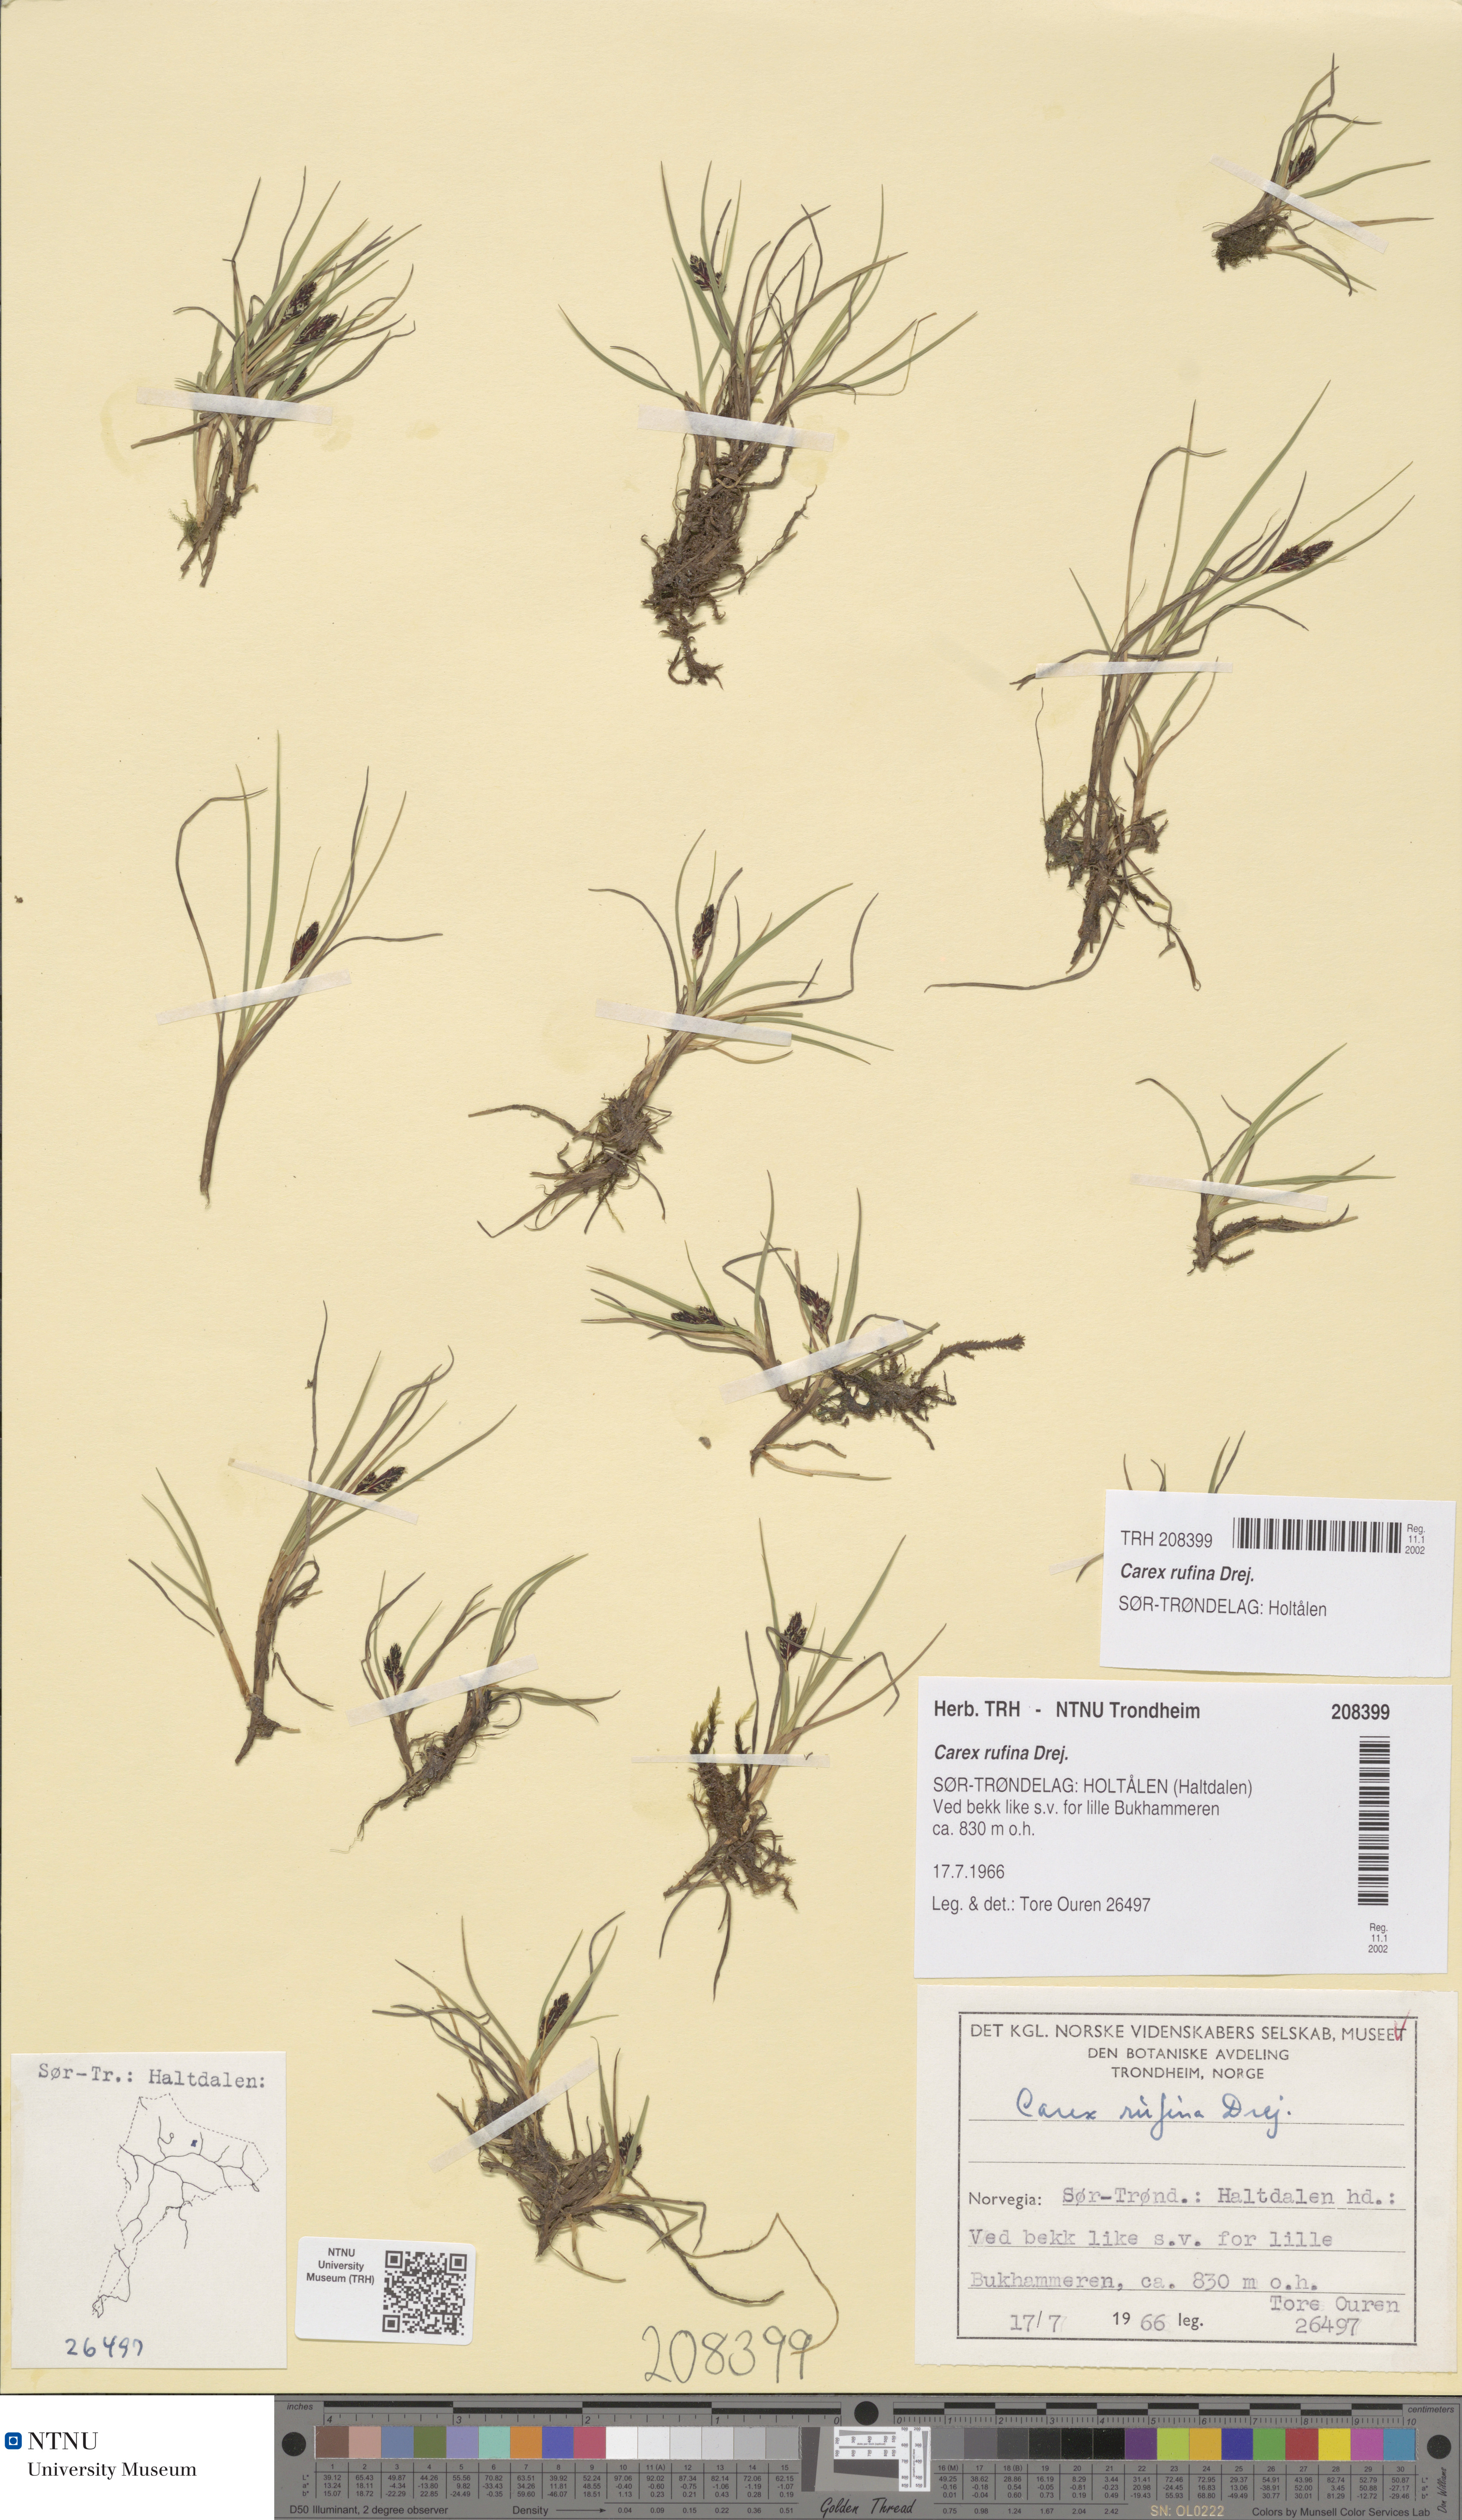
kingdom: Plantae
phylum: Tracheophyta
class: Liliopsida
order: Poales
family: Cyperaceae
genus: Carex
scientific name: Carex rufina
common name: Reddish sedge
